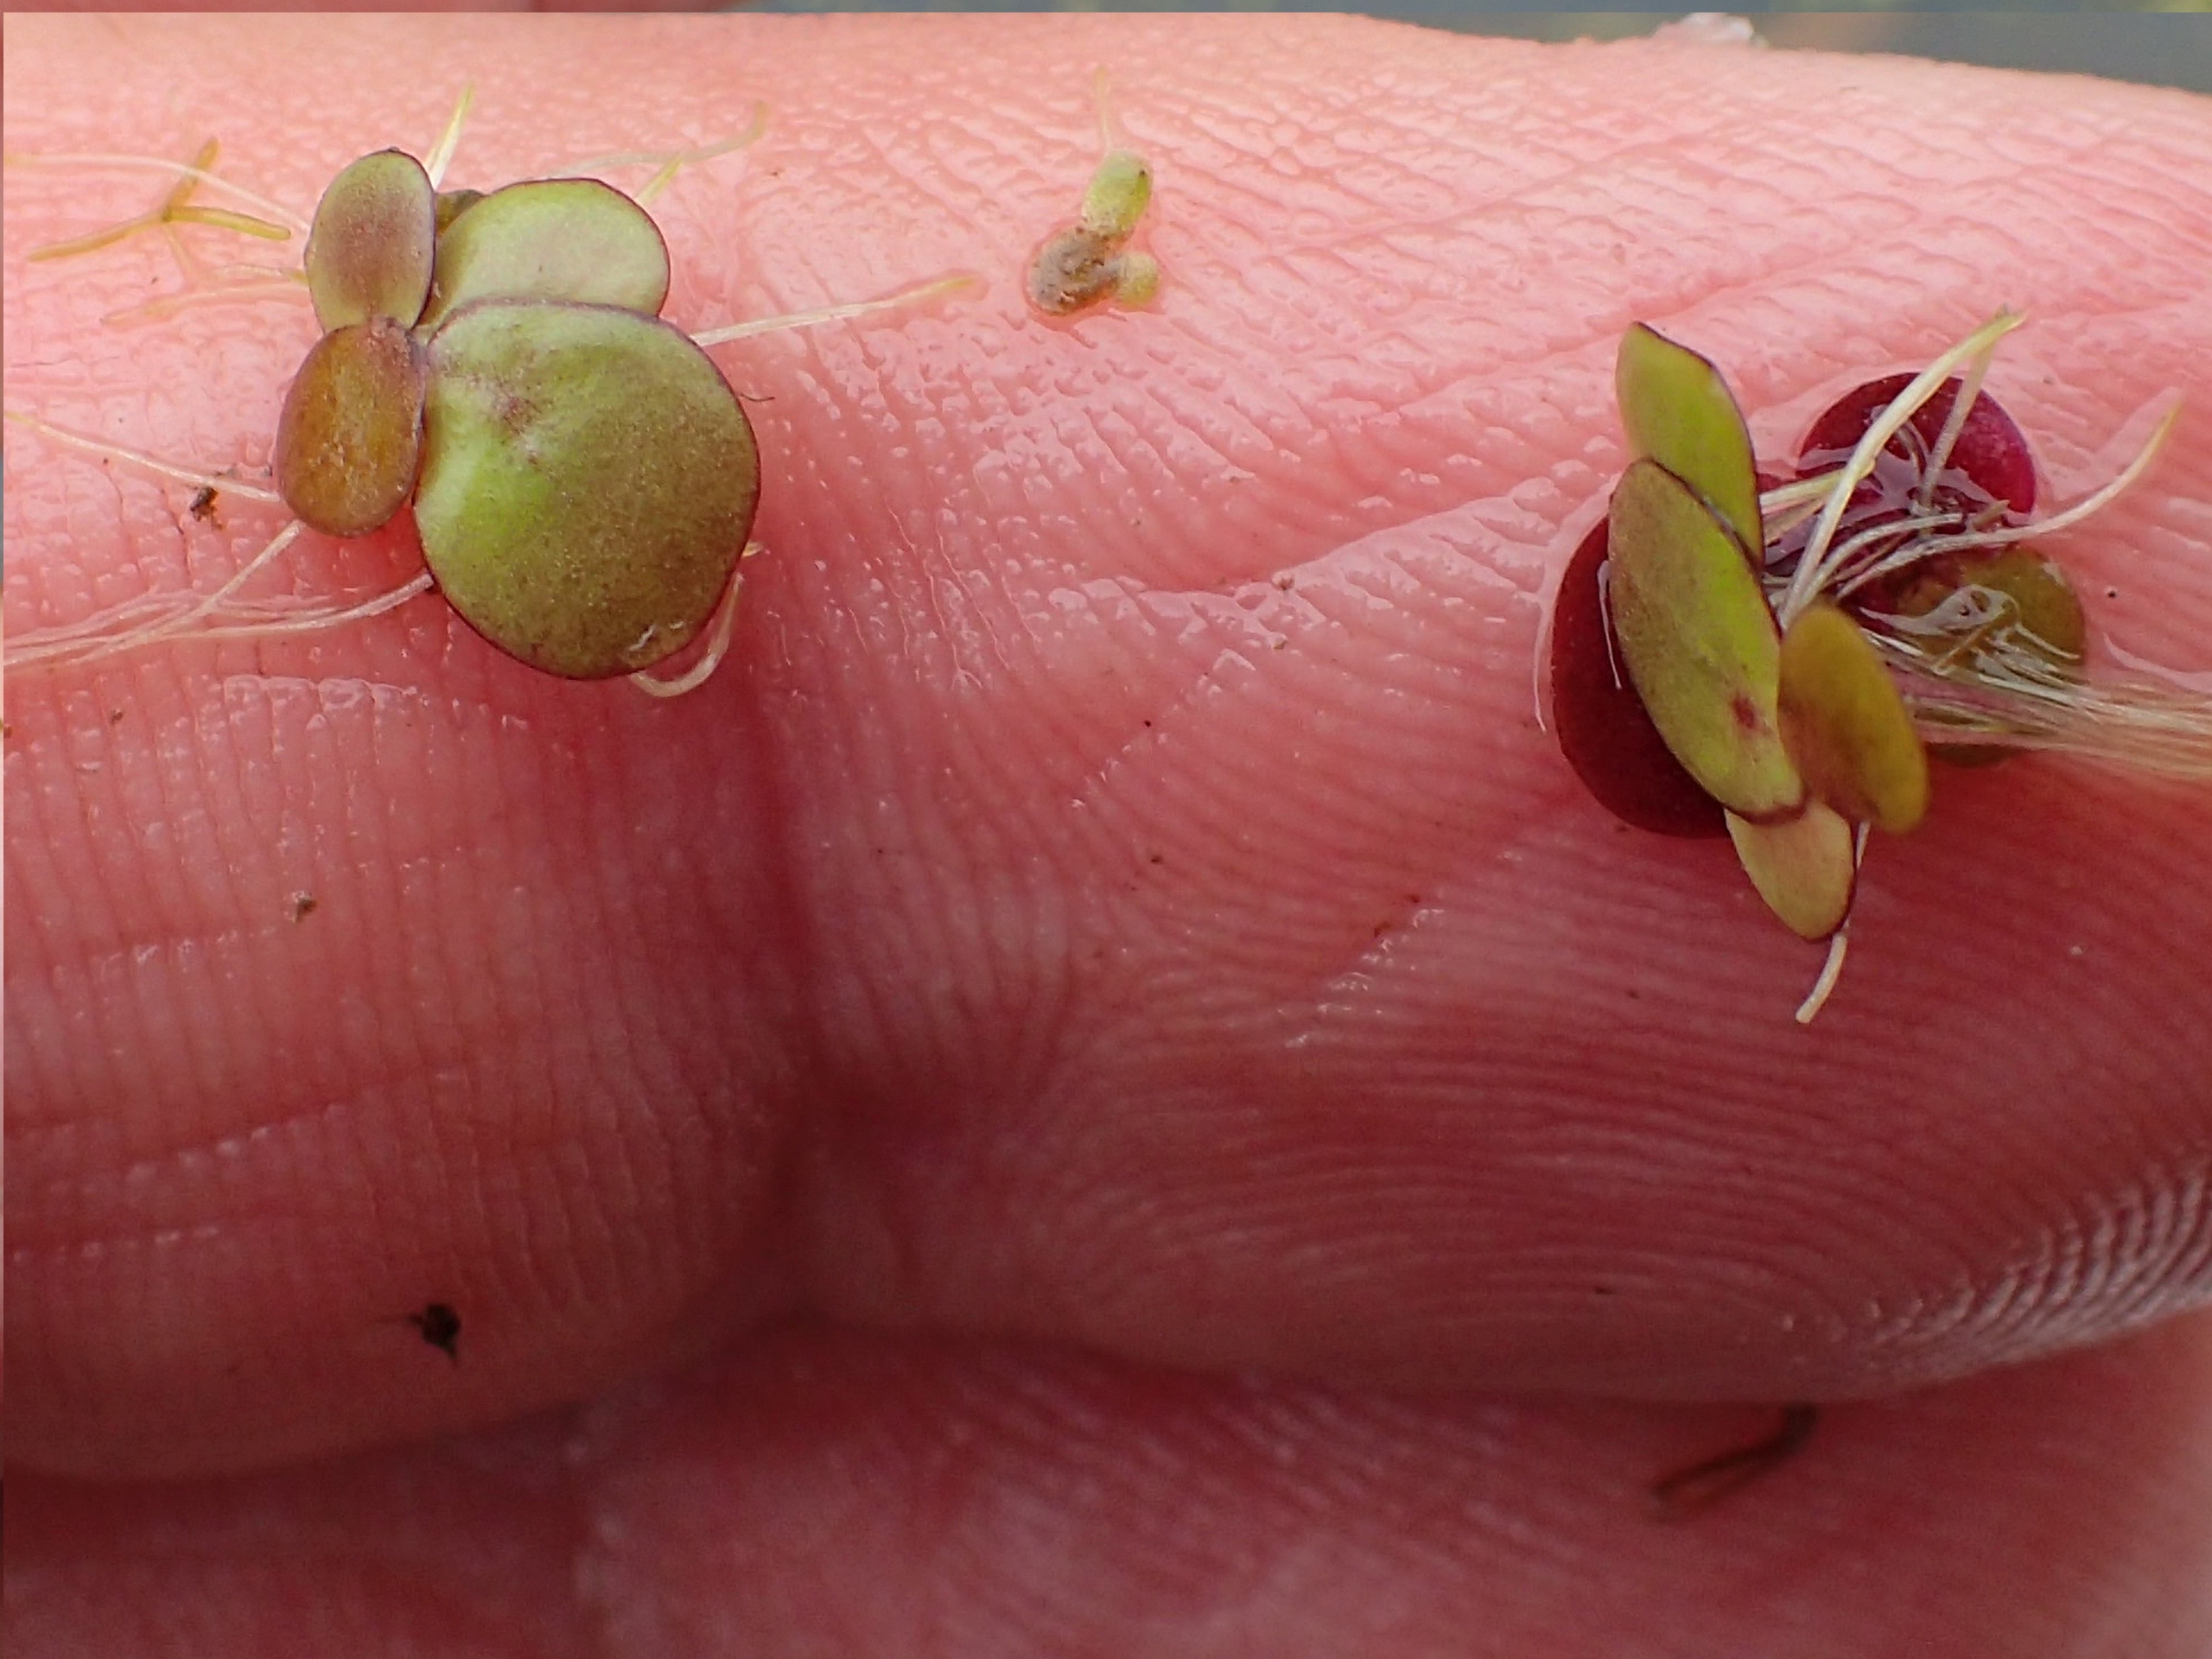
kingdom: Plantae
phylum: Tracheophyta
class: Liliopsida
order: Alismatales
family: Araceae
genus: Spirodela
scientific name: Spirodela polyrhiza
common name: Stor andemad
